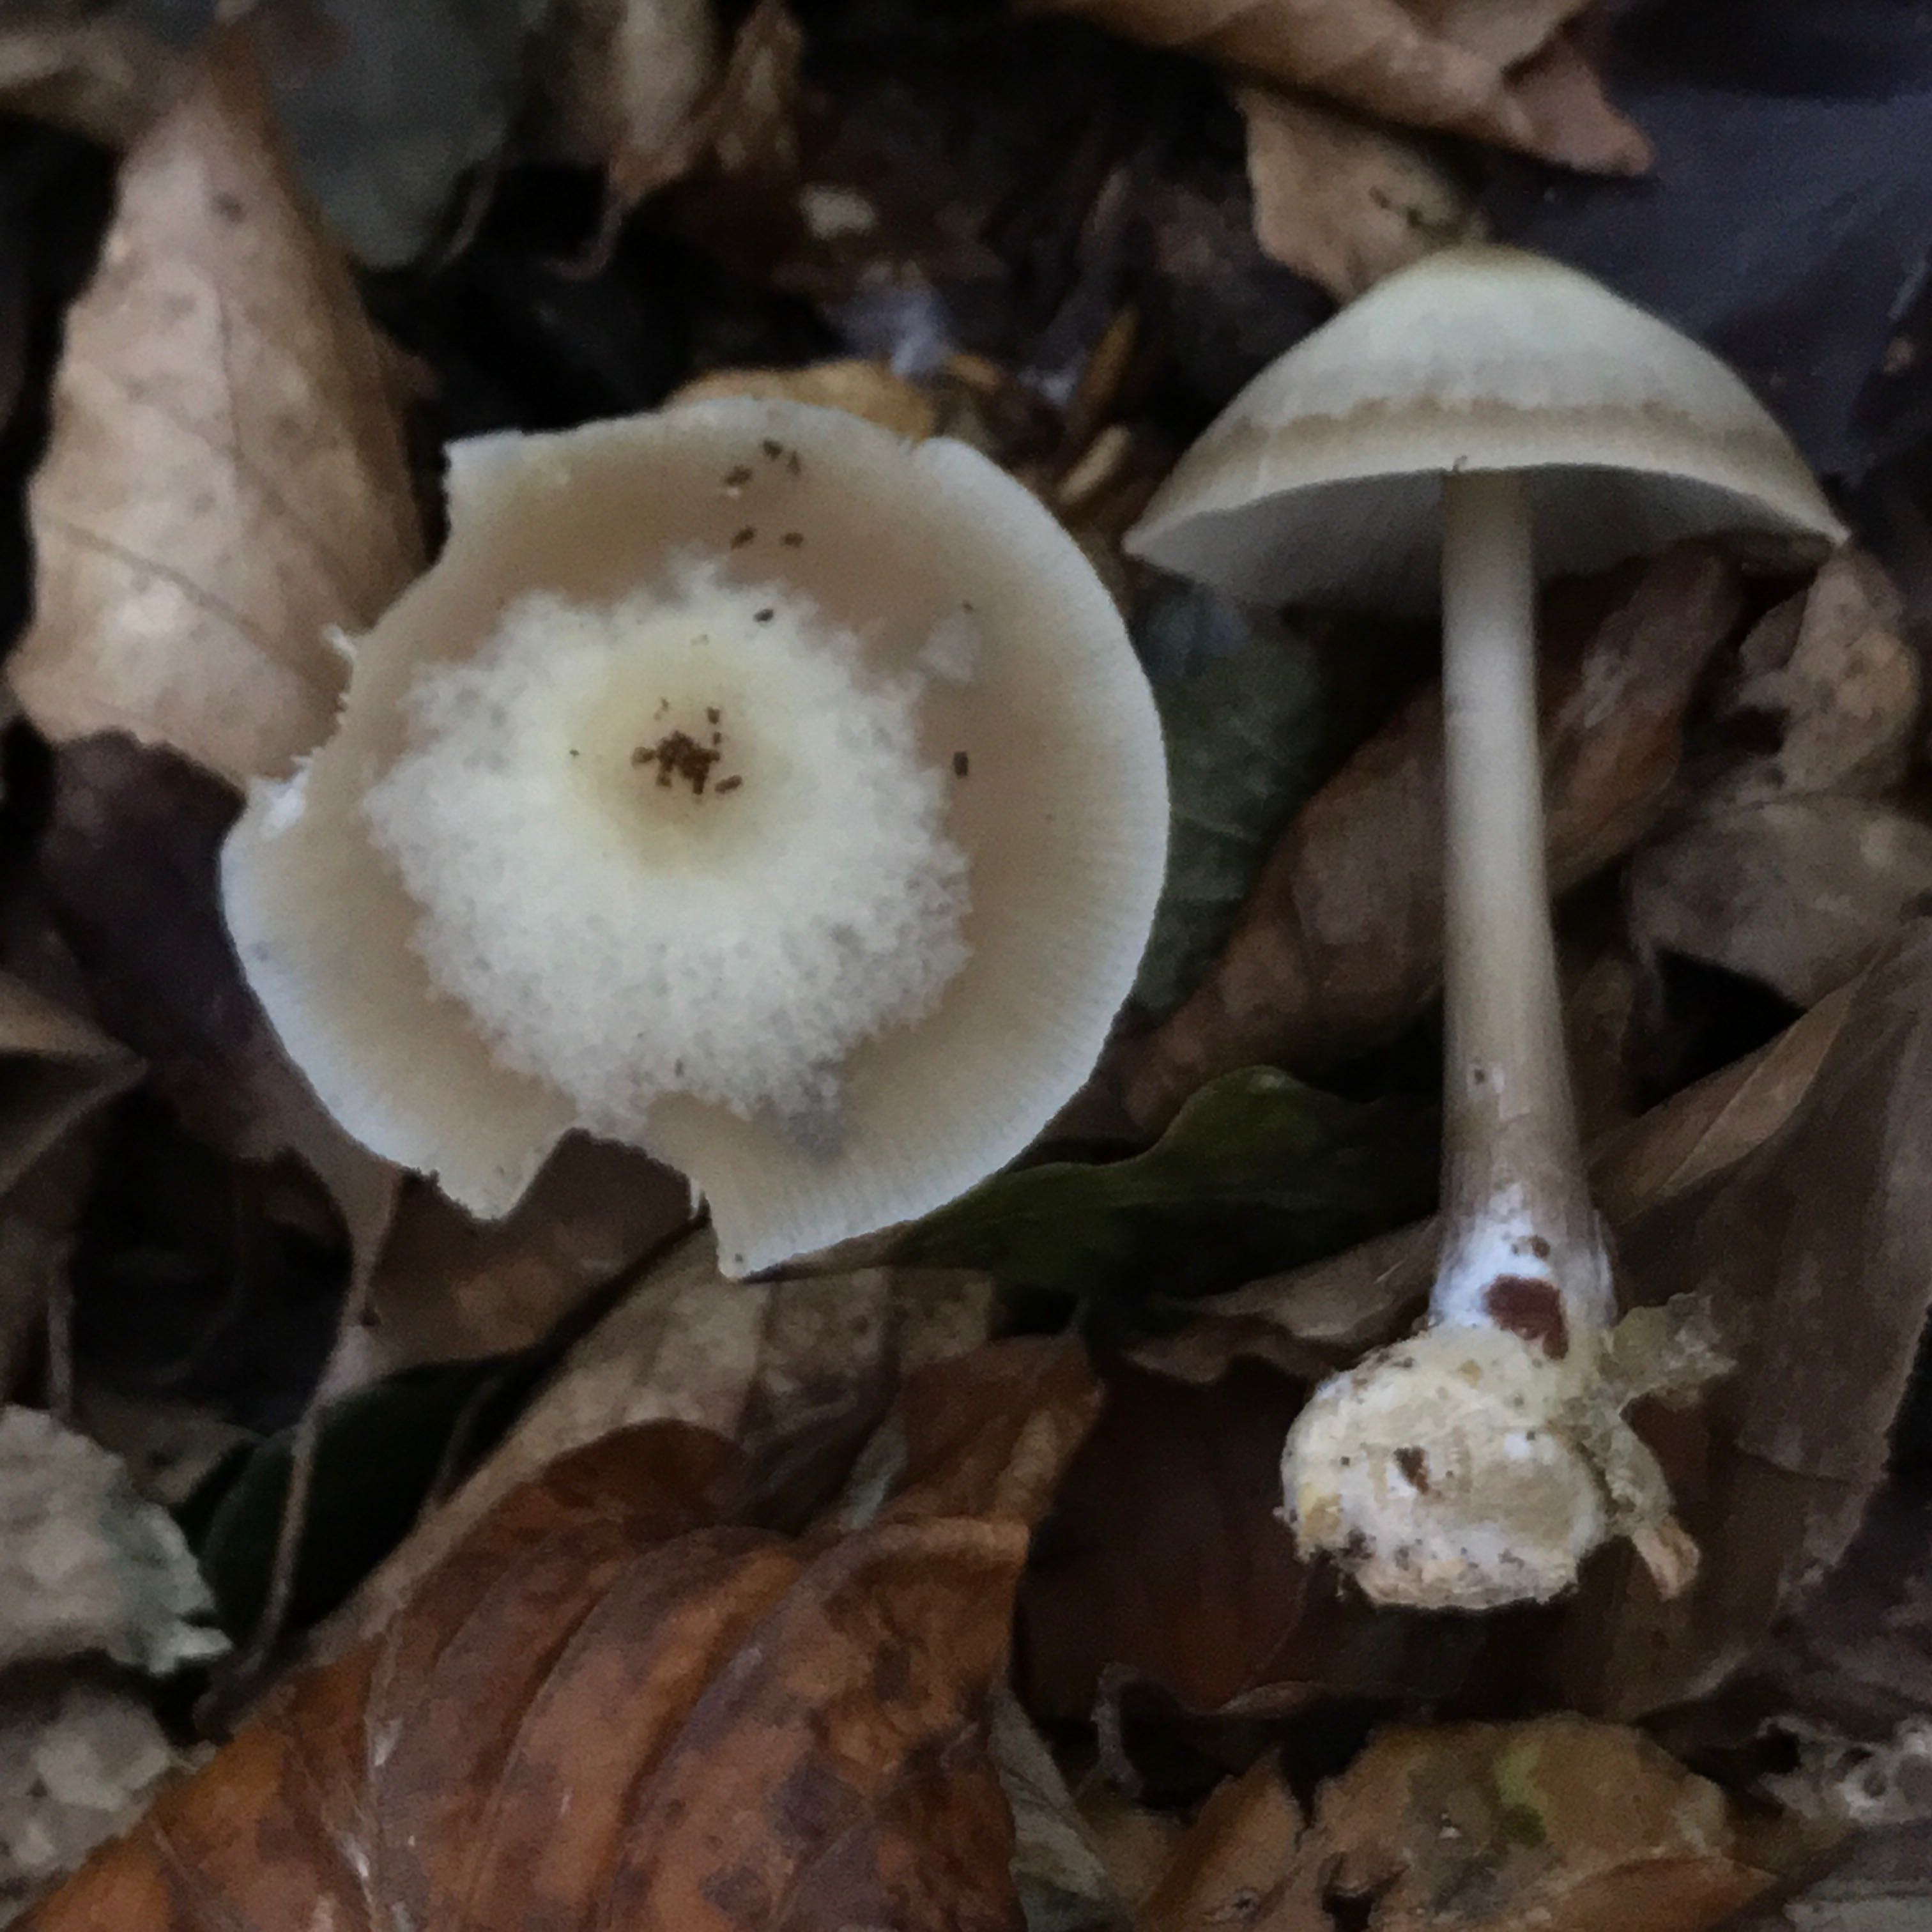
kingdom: Fungi
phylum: Basidiomycota
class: Agaricomycetes
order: Agaricales
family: Omphalotaceae
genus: Rhodocollybia
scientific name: Rhodocollybia asema
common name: horngrå fladhat
